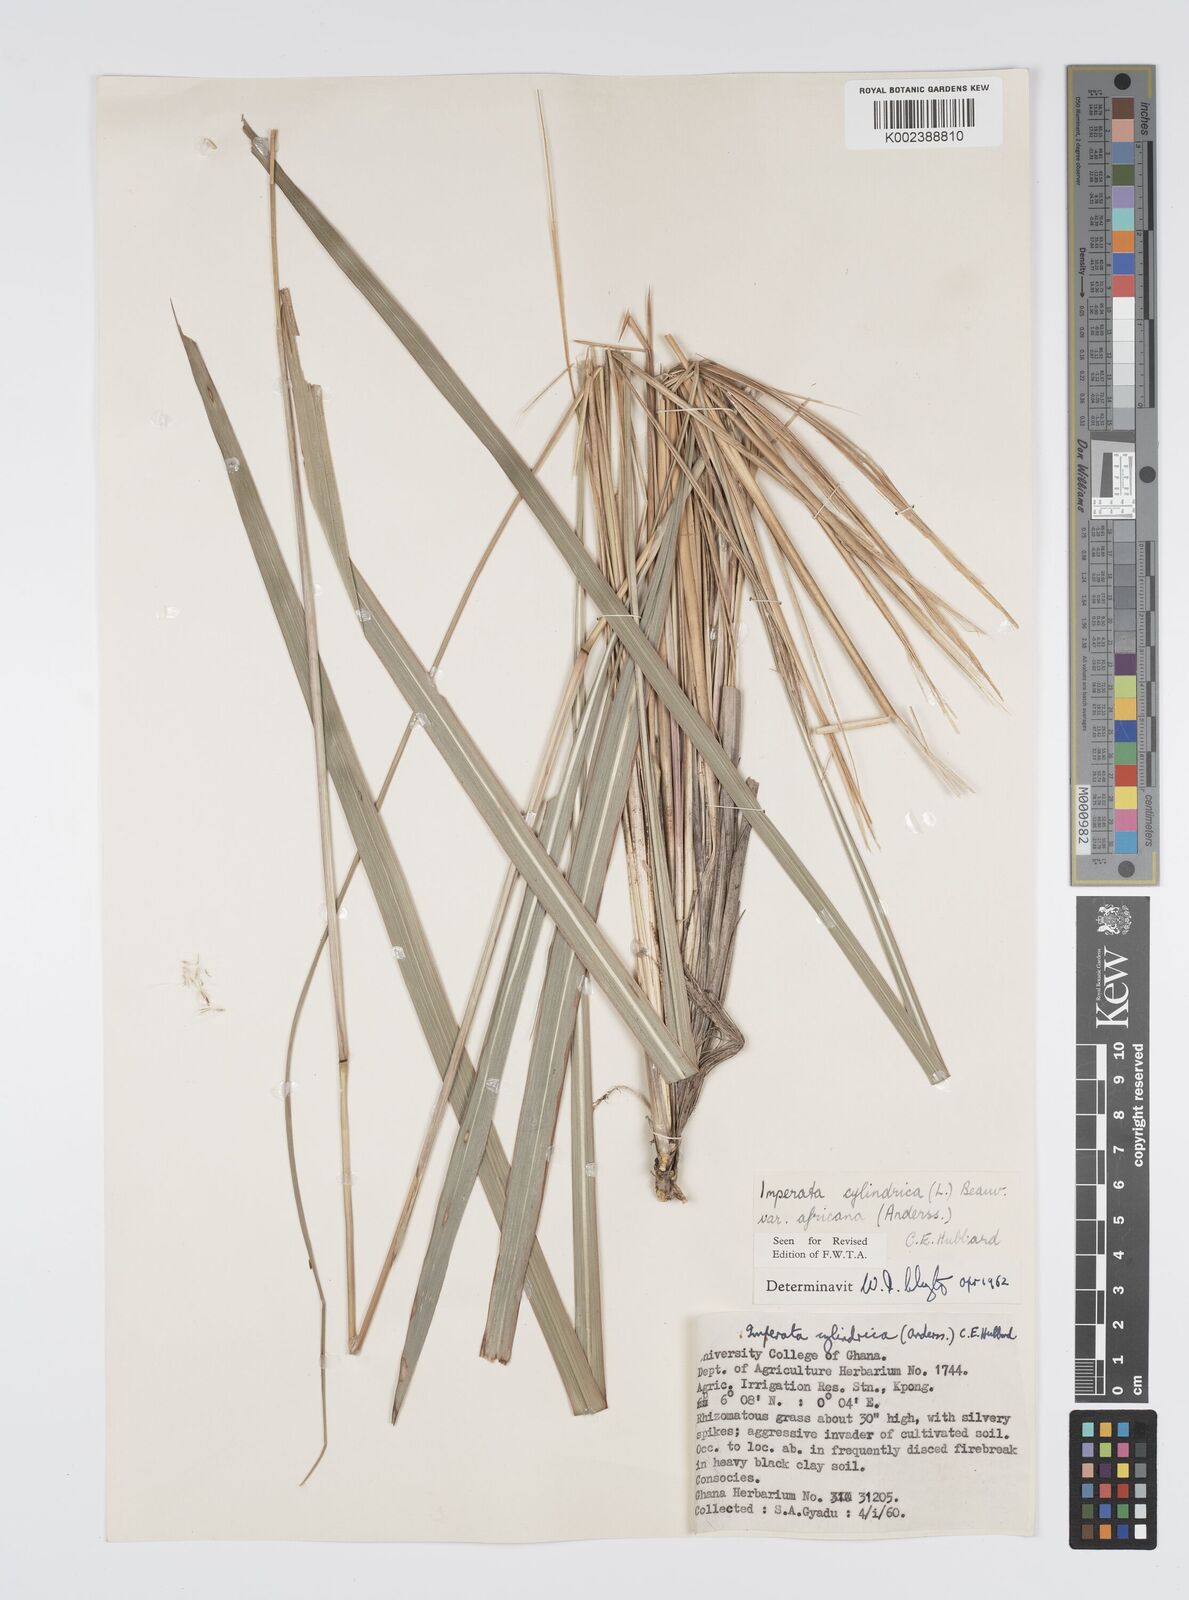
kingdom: Plantae
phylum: Tracheophyta
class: Liliopsida
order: Poales
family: Poaceae
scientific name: Poaceae
